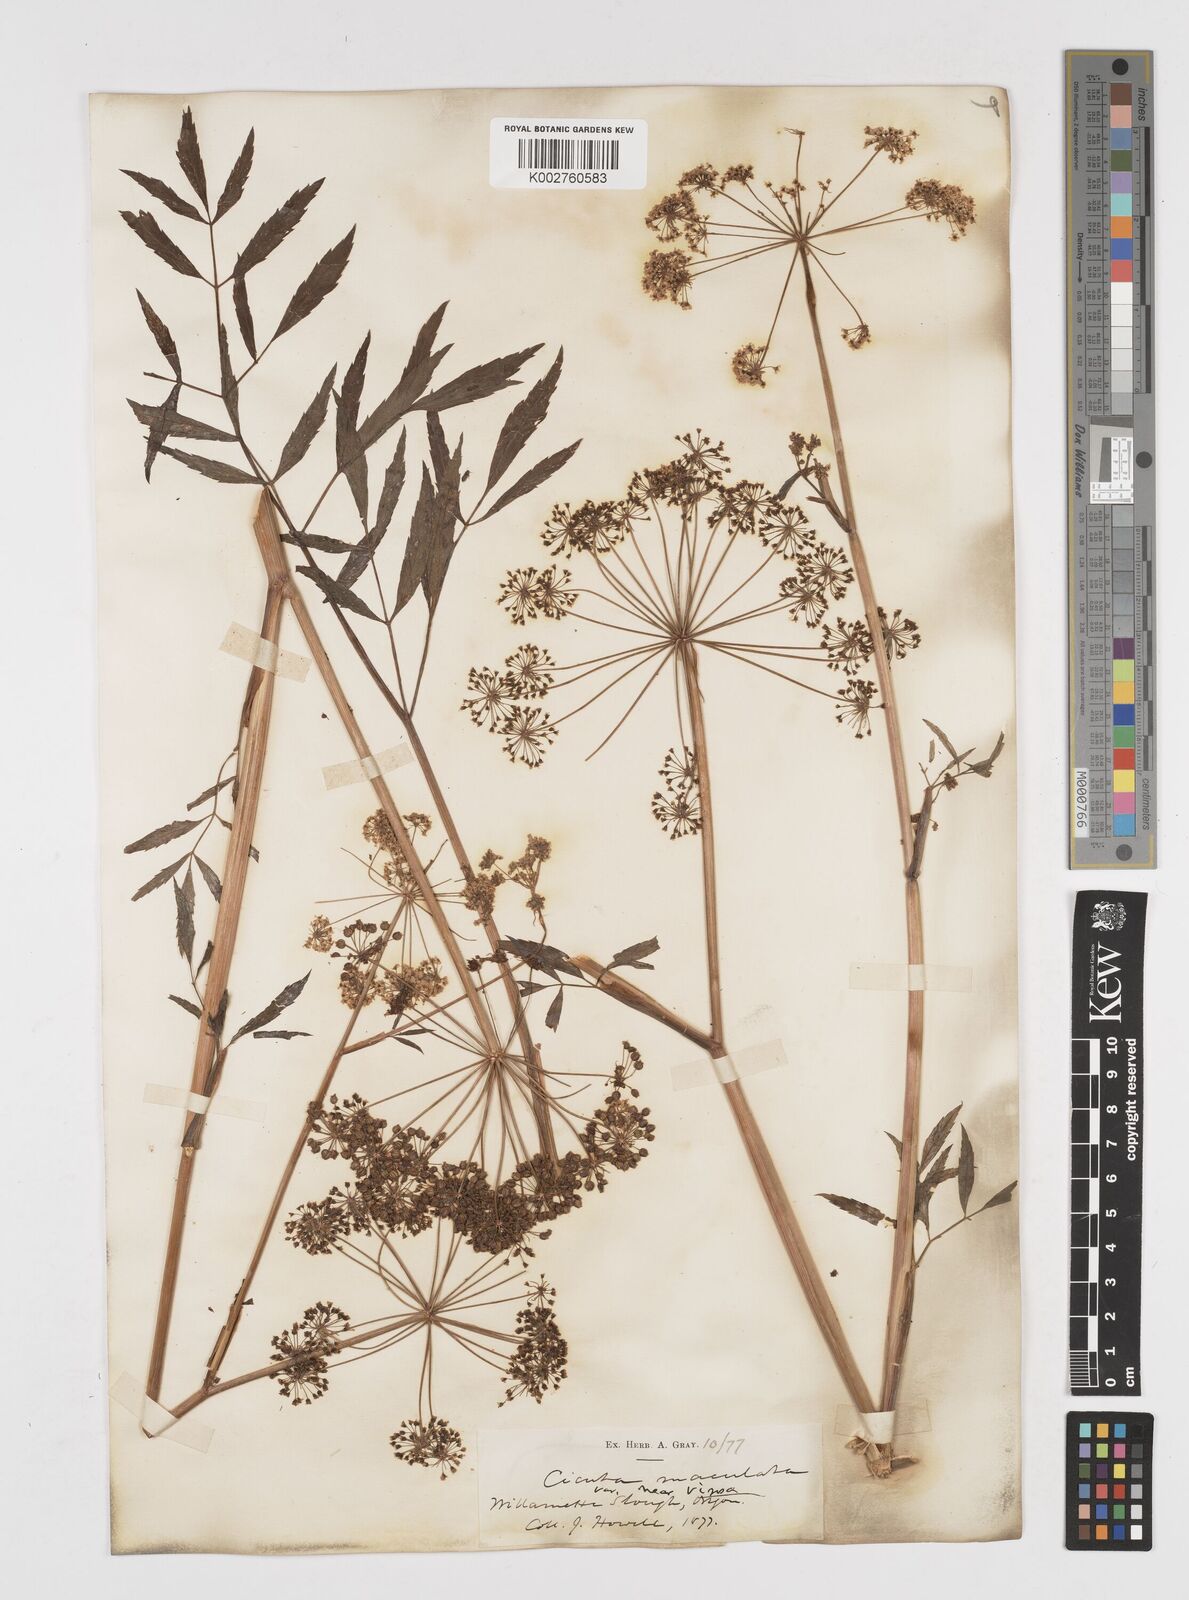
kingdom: Plantae
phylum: Tracheophyta
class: Magnoliopsida
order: Apiales
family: Apiaceae
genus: Cicuta
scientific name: Cicuta douglasii
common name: Western water-hemlock
